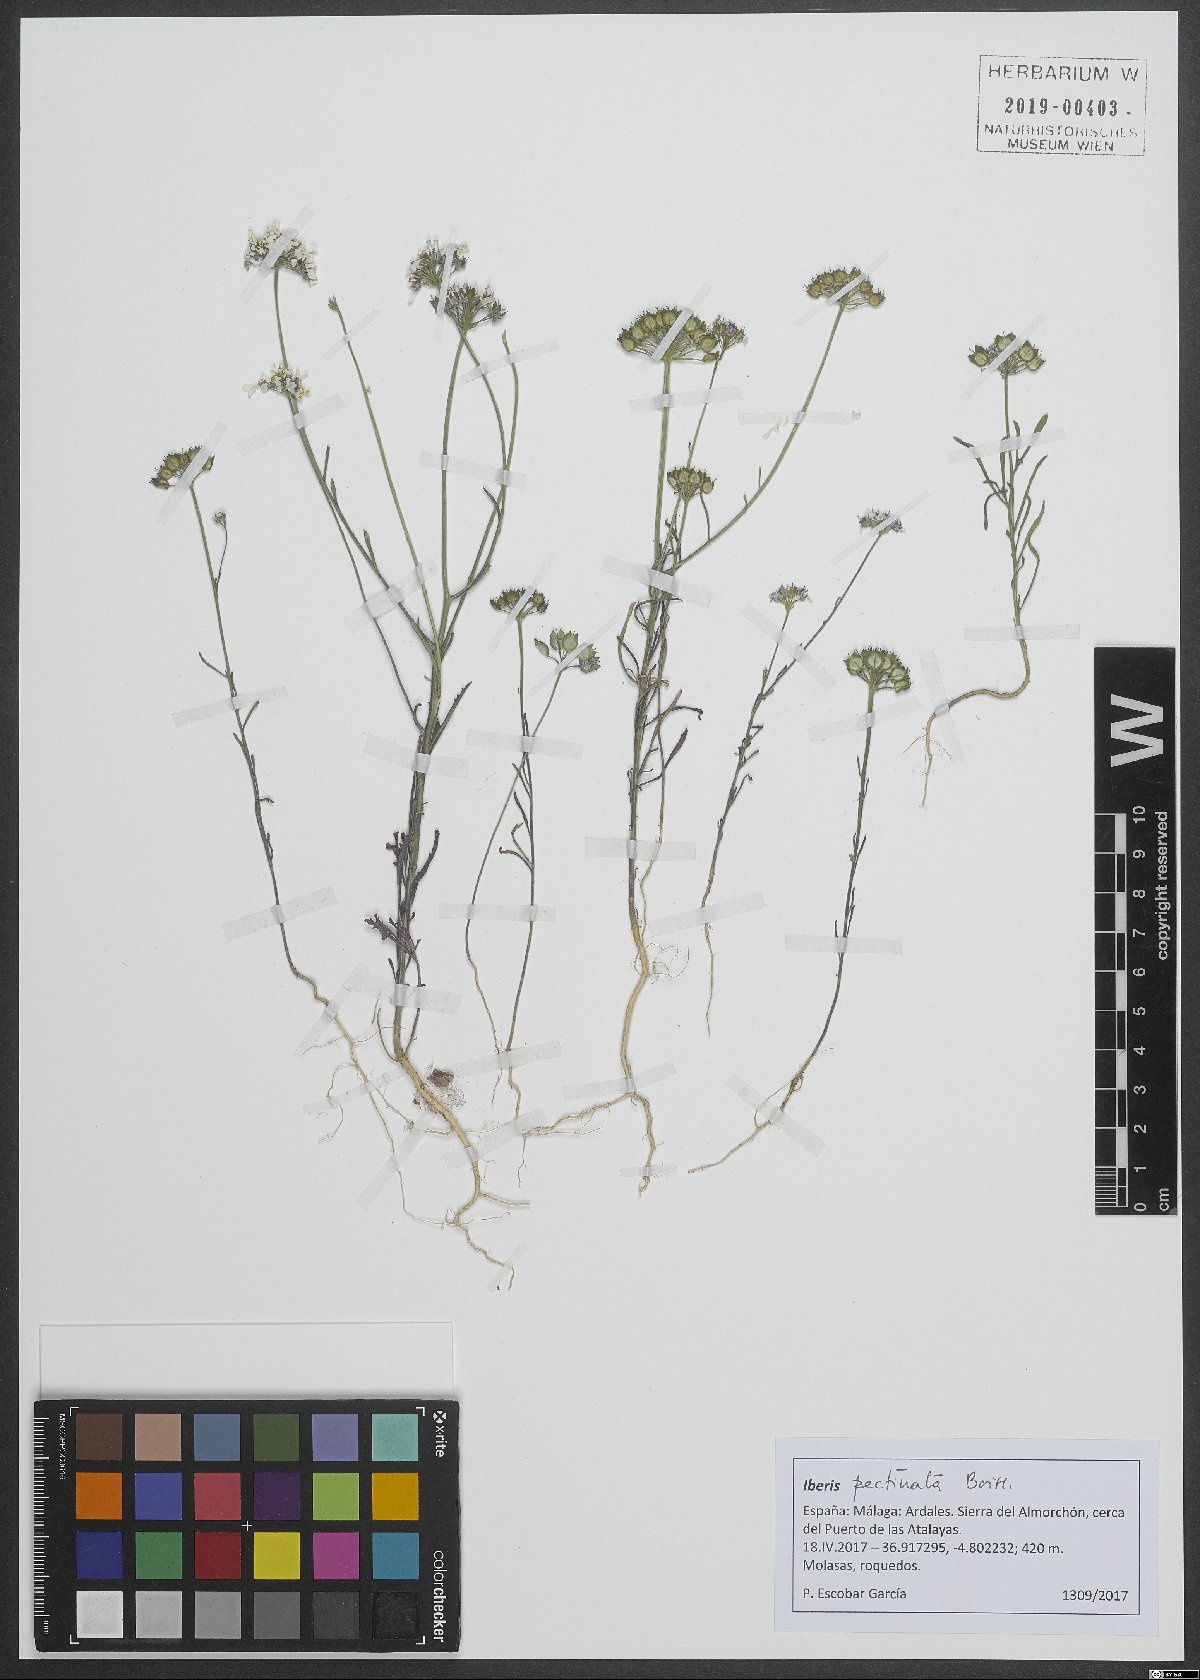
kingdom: Plantae
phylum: Tracheophyta
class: Magnoliopsida
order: Brassicales
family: Brassicaceae
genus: Iberis
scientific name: Iberis pectinata
